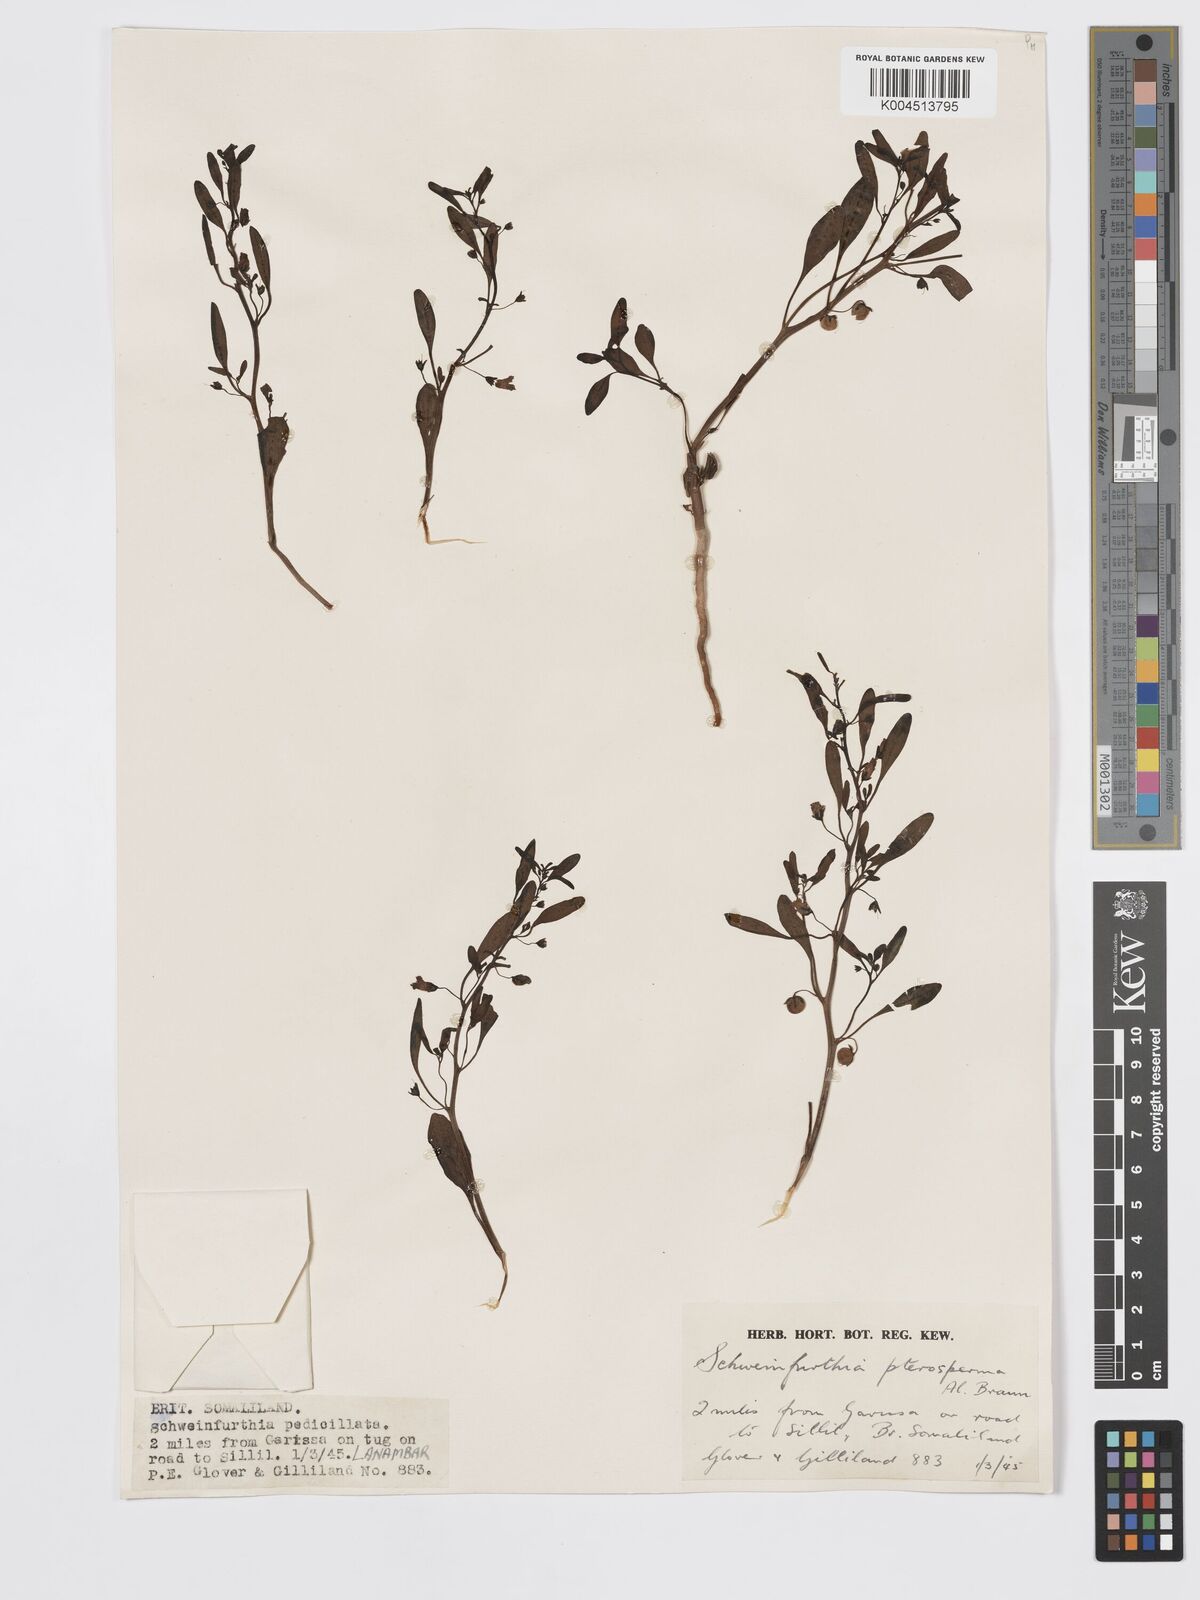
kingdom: Plantae
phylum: Tracheophyta
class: Magnoliopsida
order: Lamiales
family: Plantaginaceae
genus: Schweinfurthia
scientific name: Schweinfurthia pterosperma
